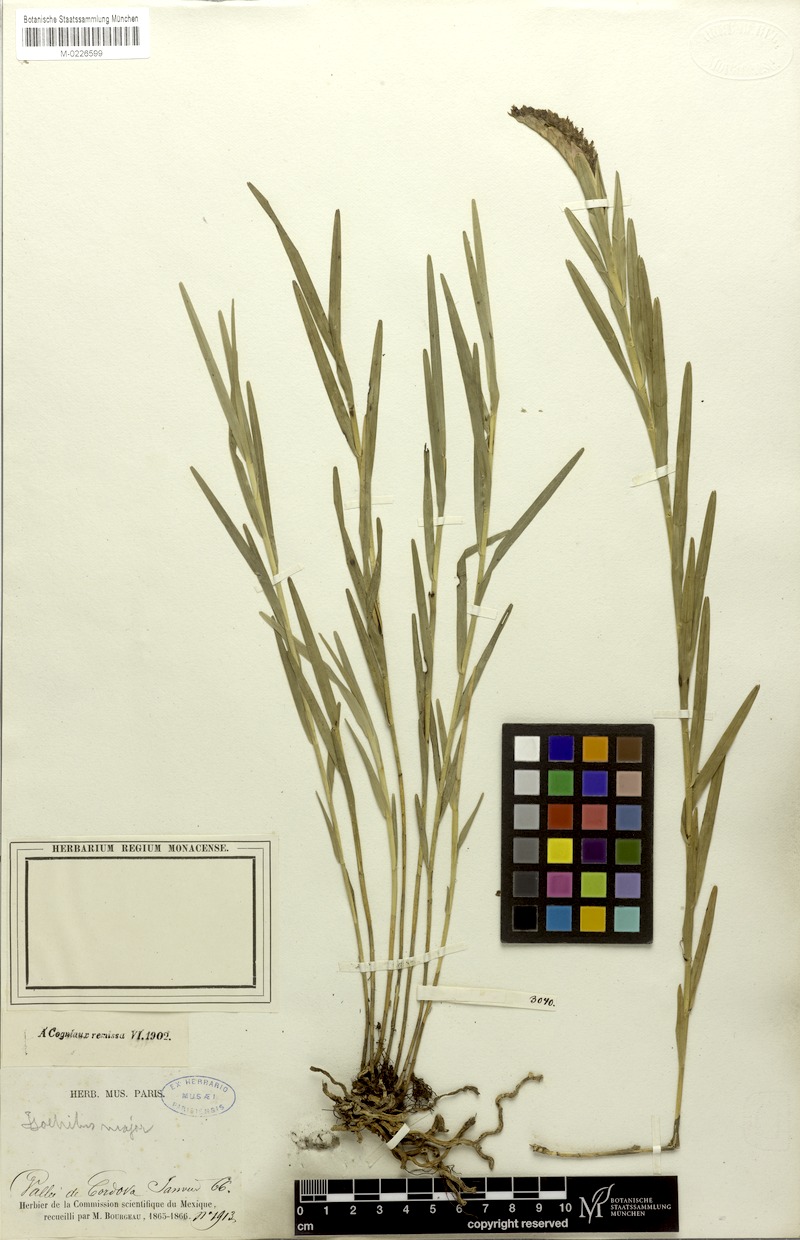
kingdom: Plantae
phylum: Tracheophyta
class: Liliopsida
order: Asparagales
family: Orchidaceae
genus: Isochilus
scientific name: Isochilus major
